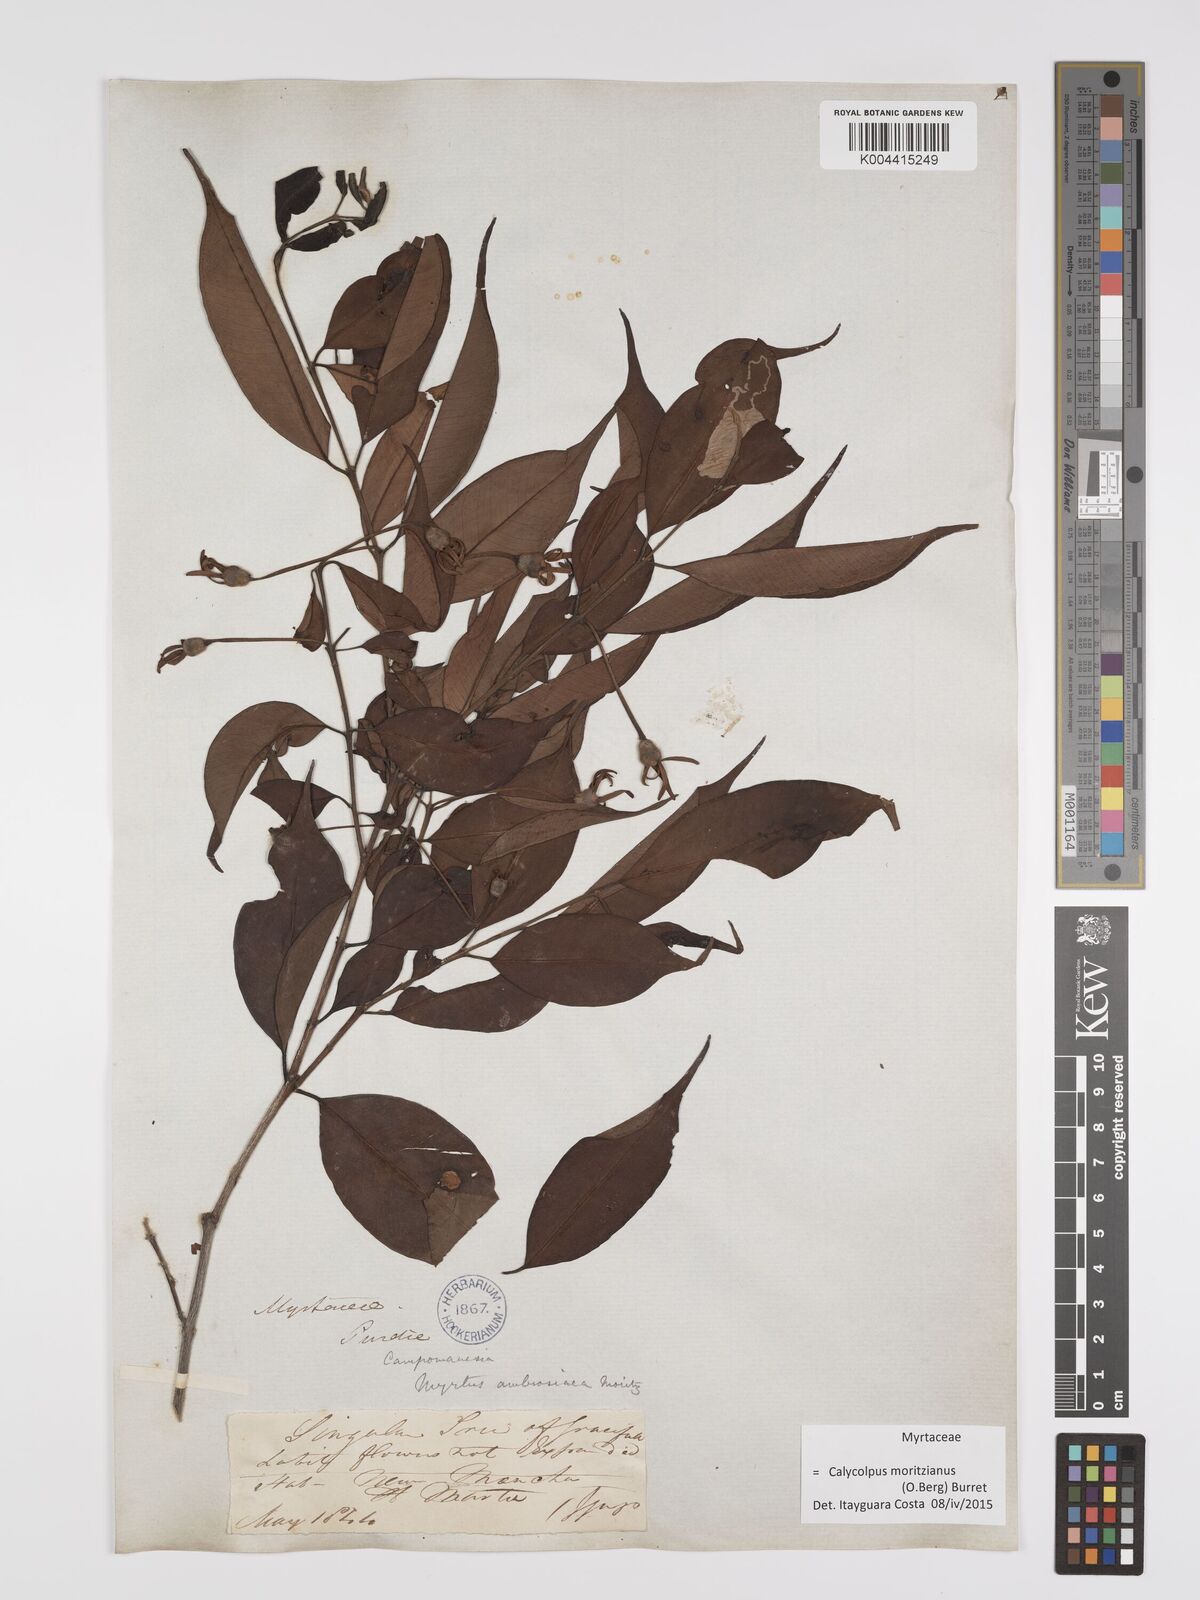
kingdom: Plantae
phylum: Tracheophyta
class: Magnoliopsida
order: Myrtales
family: Myrtaceae
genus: Calycolpus
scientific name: Calycolpus moritzianus
